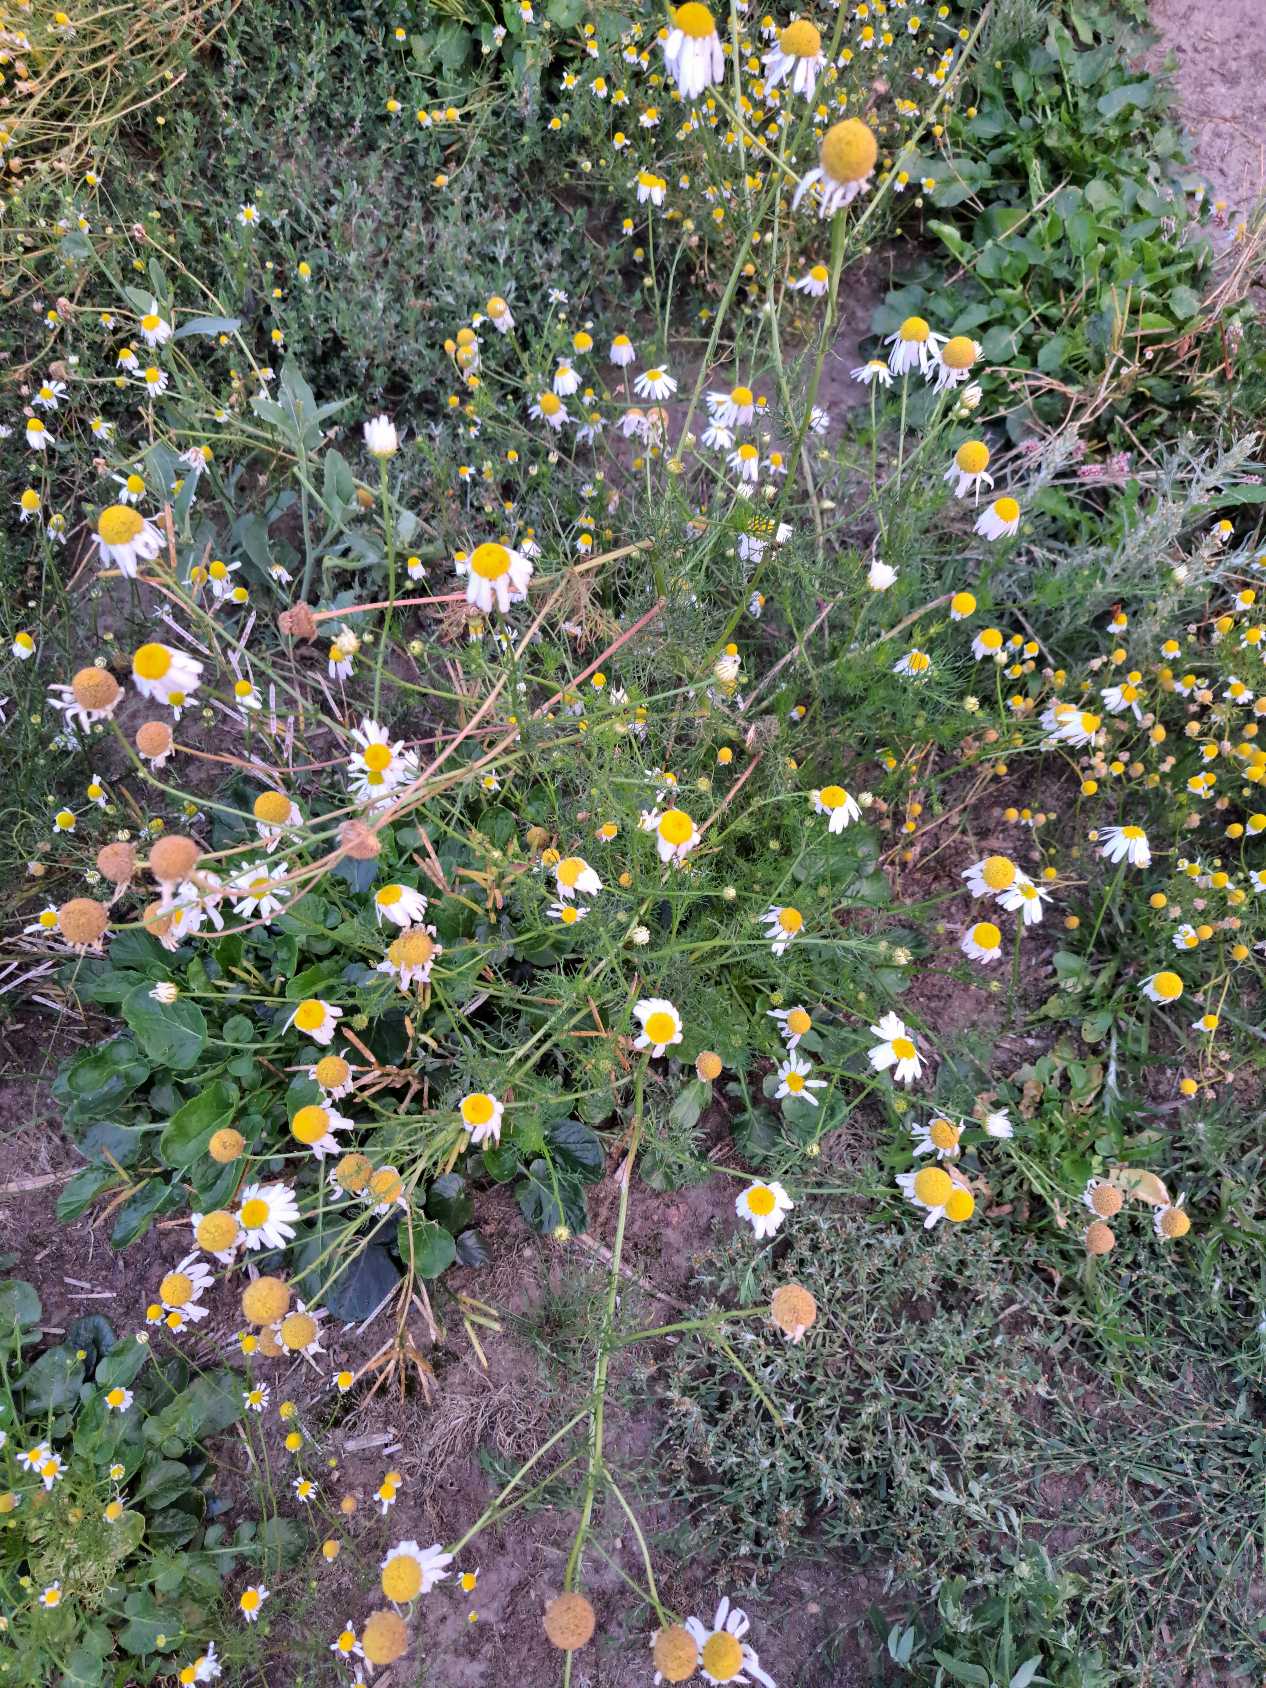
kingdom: Plantae
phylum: Tracheophyta
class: Magnoliopsida
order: Asterales
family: Asteraceae
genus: Tripleurospermum
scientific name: Tripleurospermum inodorum
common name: Lugtløs kamille
